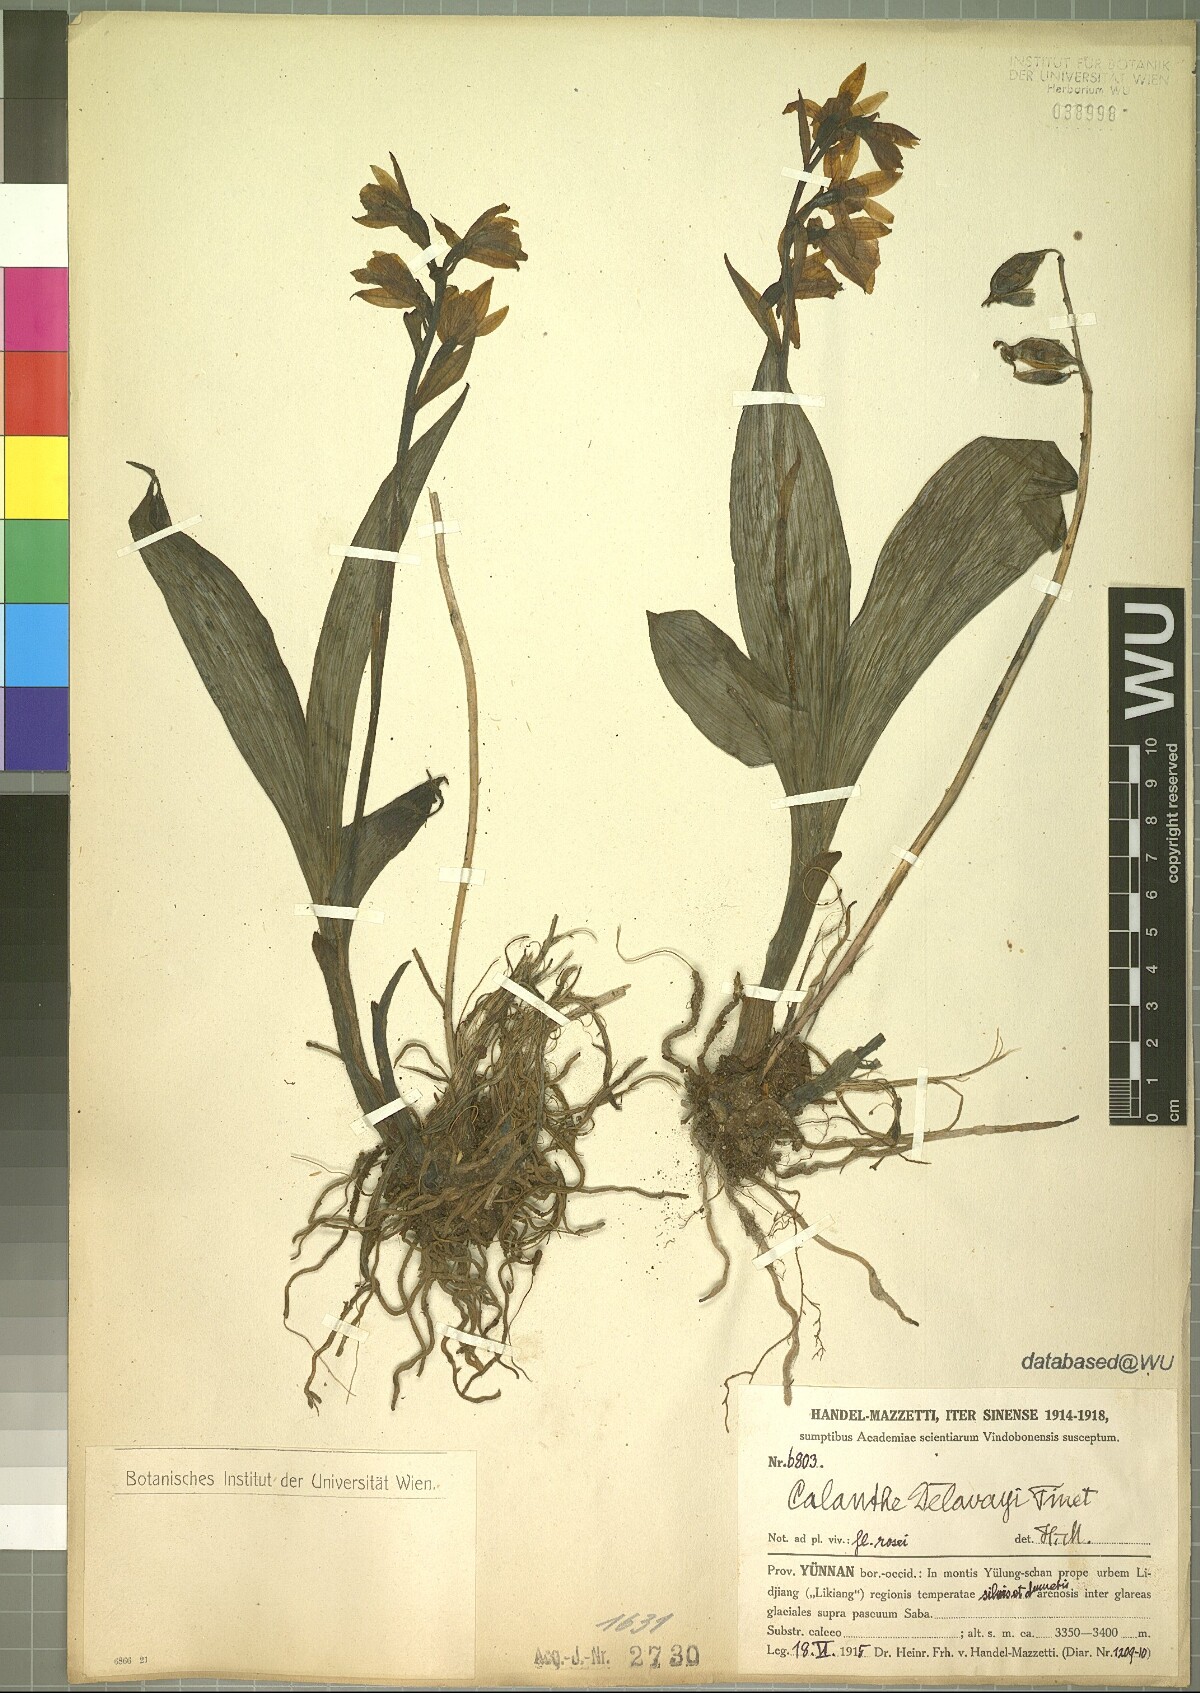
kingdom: Plantae
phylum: Tracheophyta
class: Liliopsida
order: Asparagales
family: Orchidaceae
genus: Calanthe
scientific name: Calanthe delavayi
